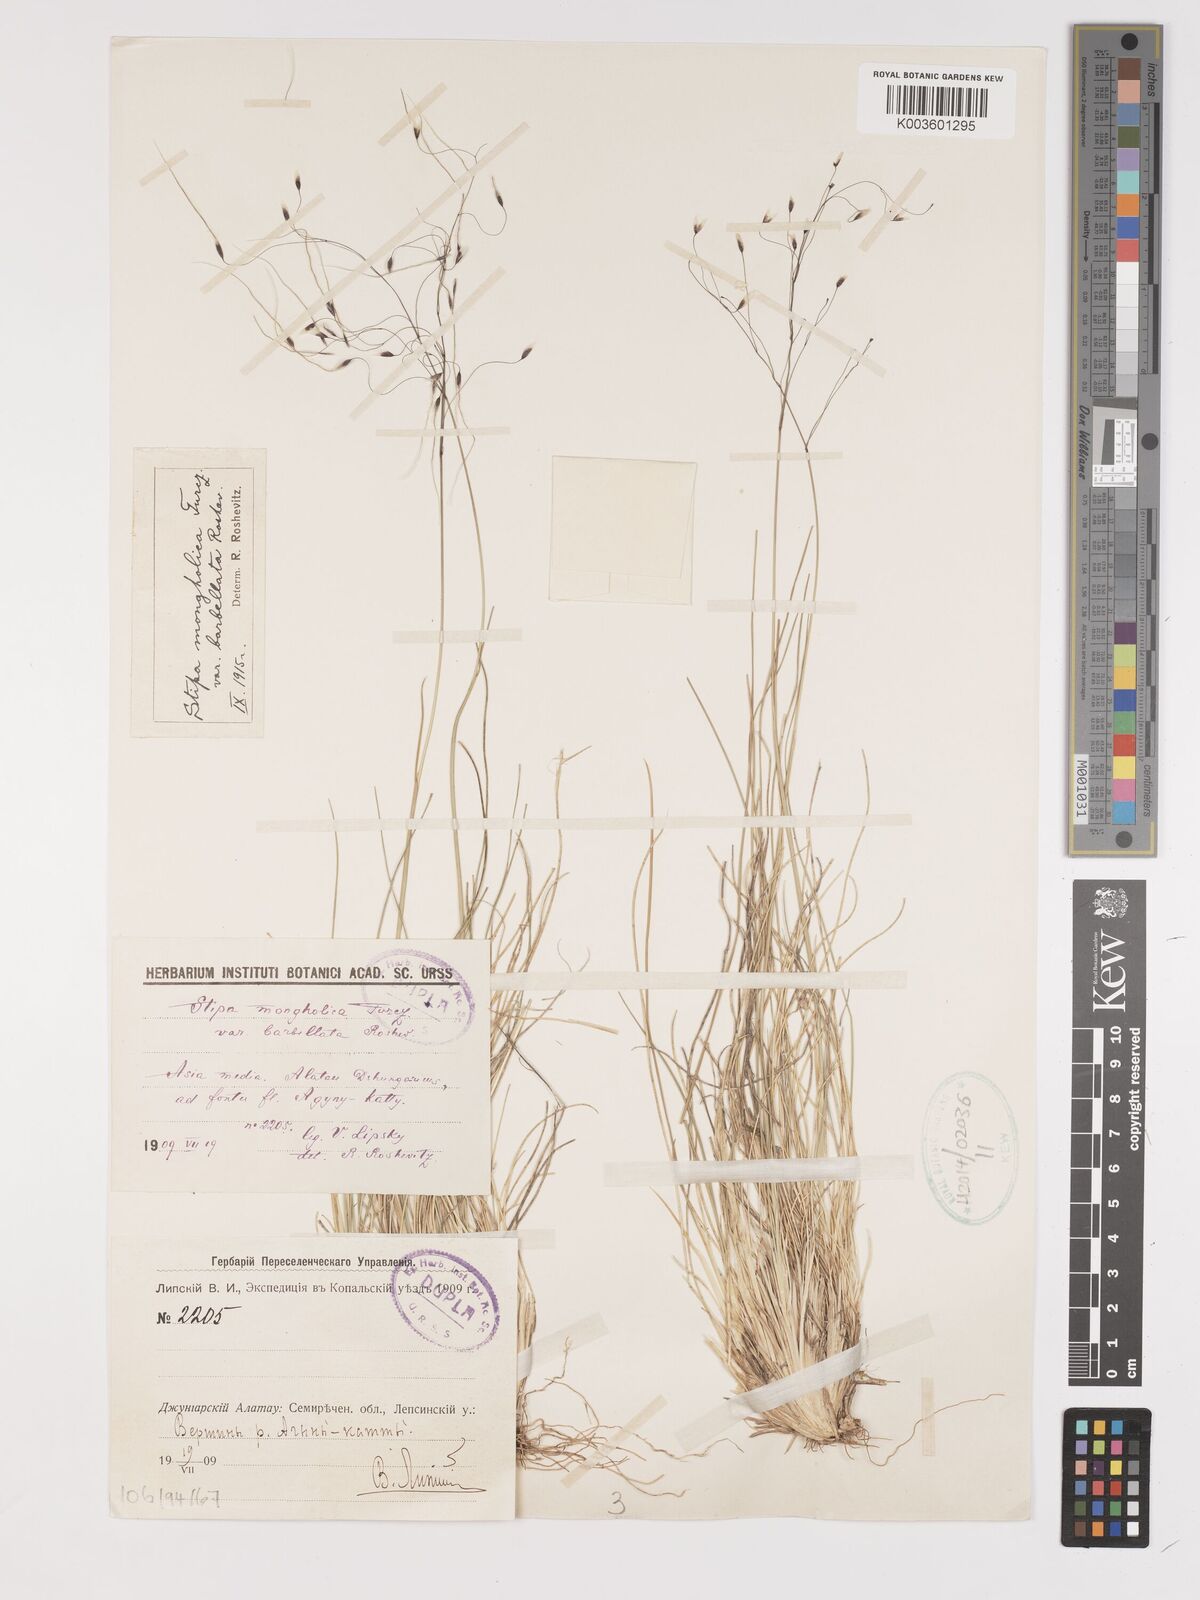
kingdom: Plantae
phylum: Tracheophyta
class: Liliopsida
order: Poales
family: Poaceae
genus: Ptilagrostis
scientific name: Ptilagrostis mongholica
